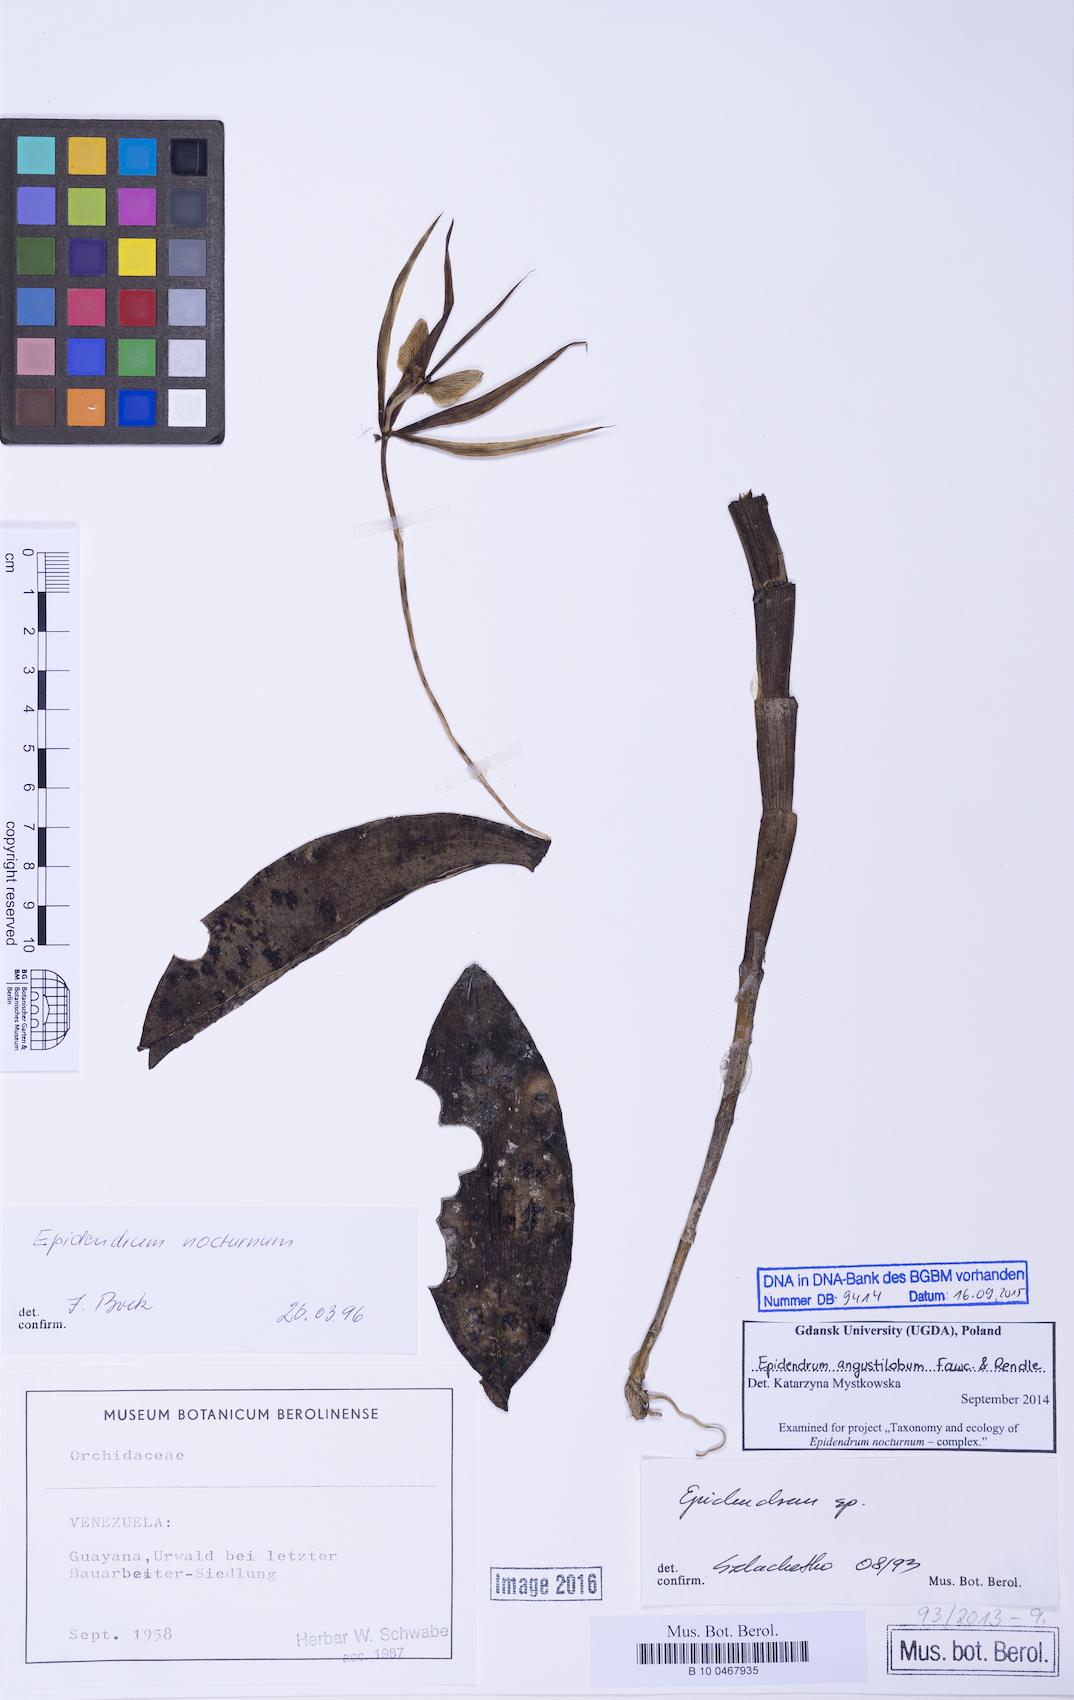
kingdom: Plantae
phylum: Tracheophyta
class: Liliopsida
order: Asparagales
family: Orchidaceae
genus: Epidendrum
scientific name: Epidendrum angustilobum
